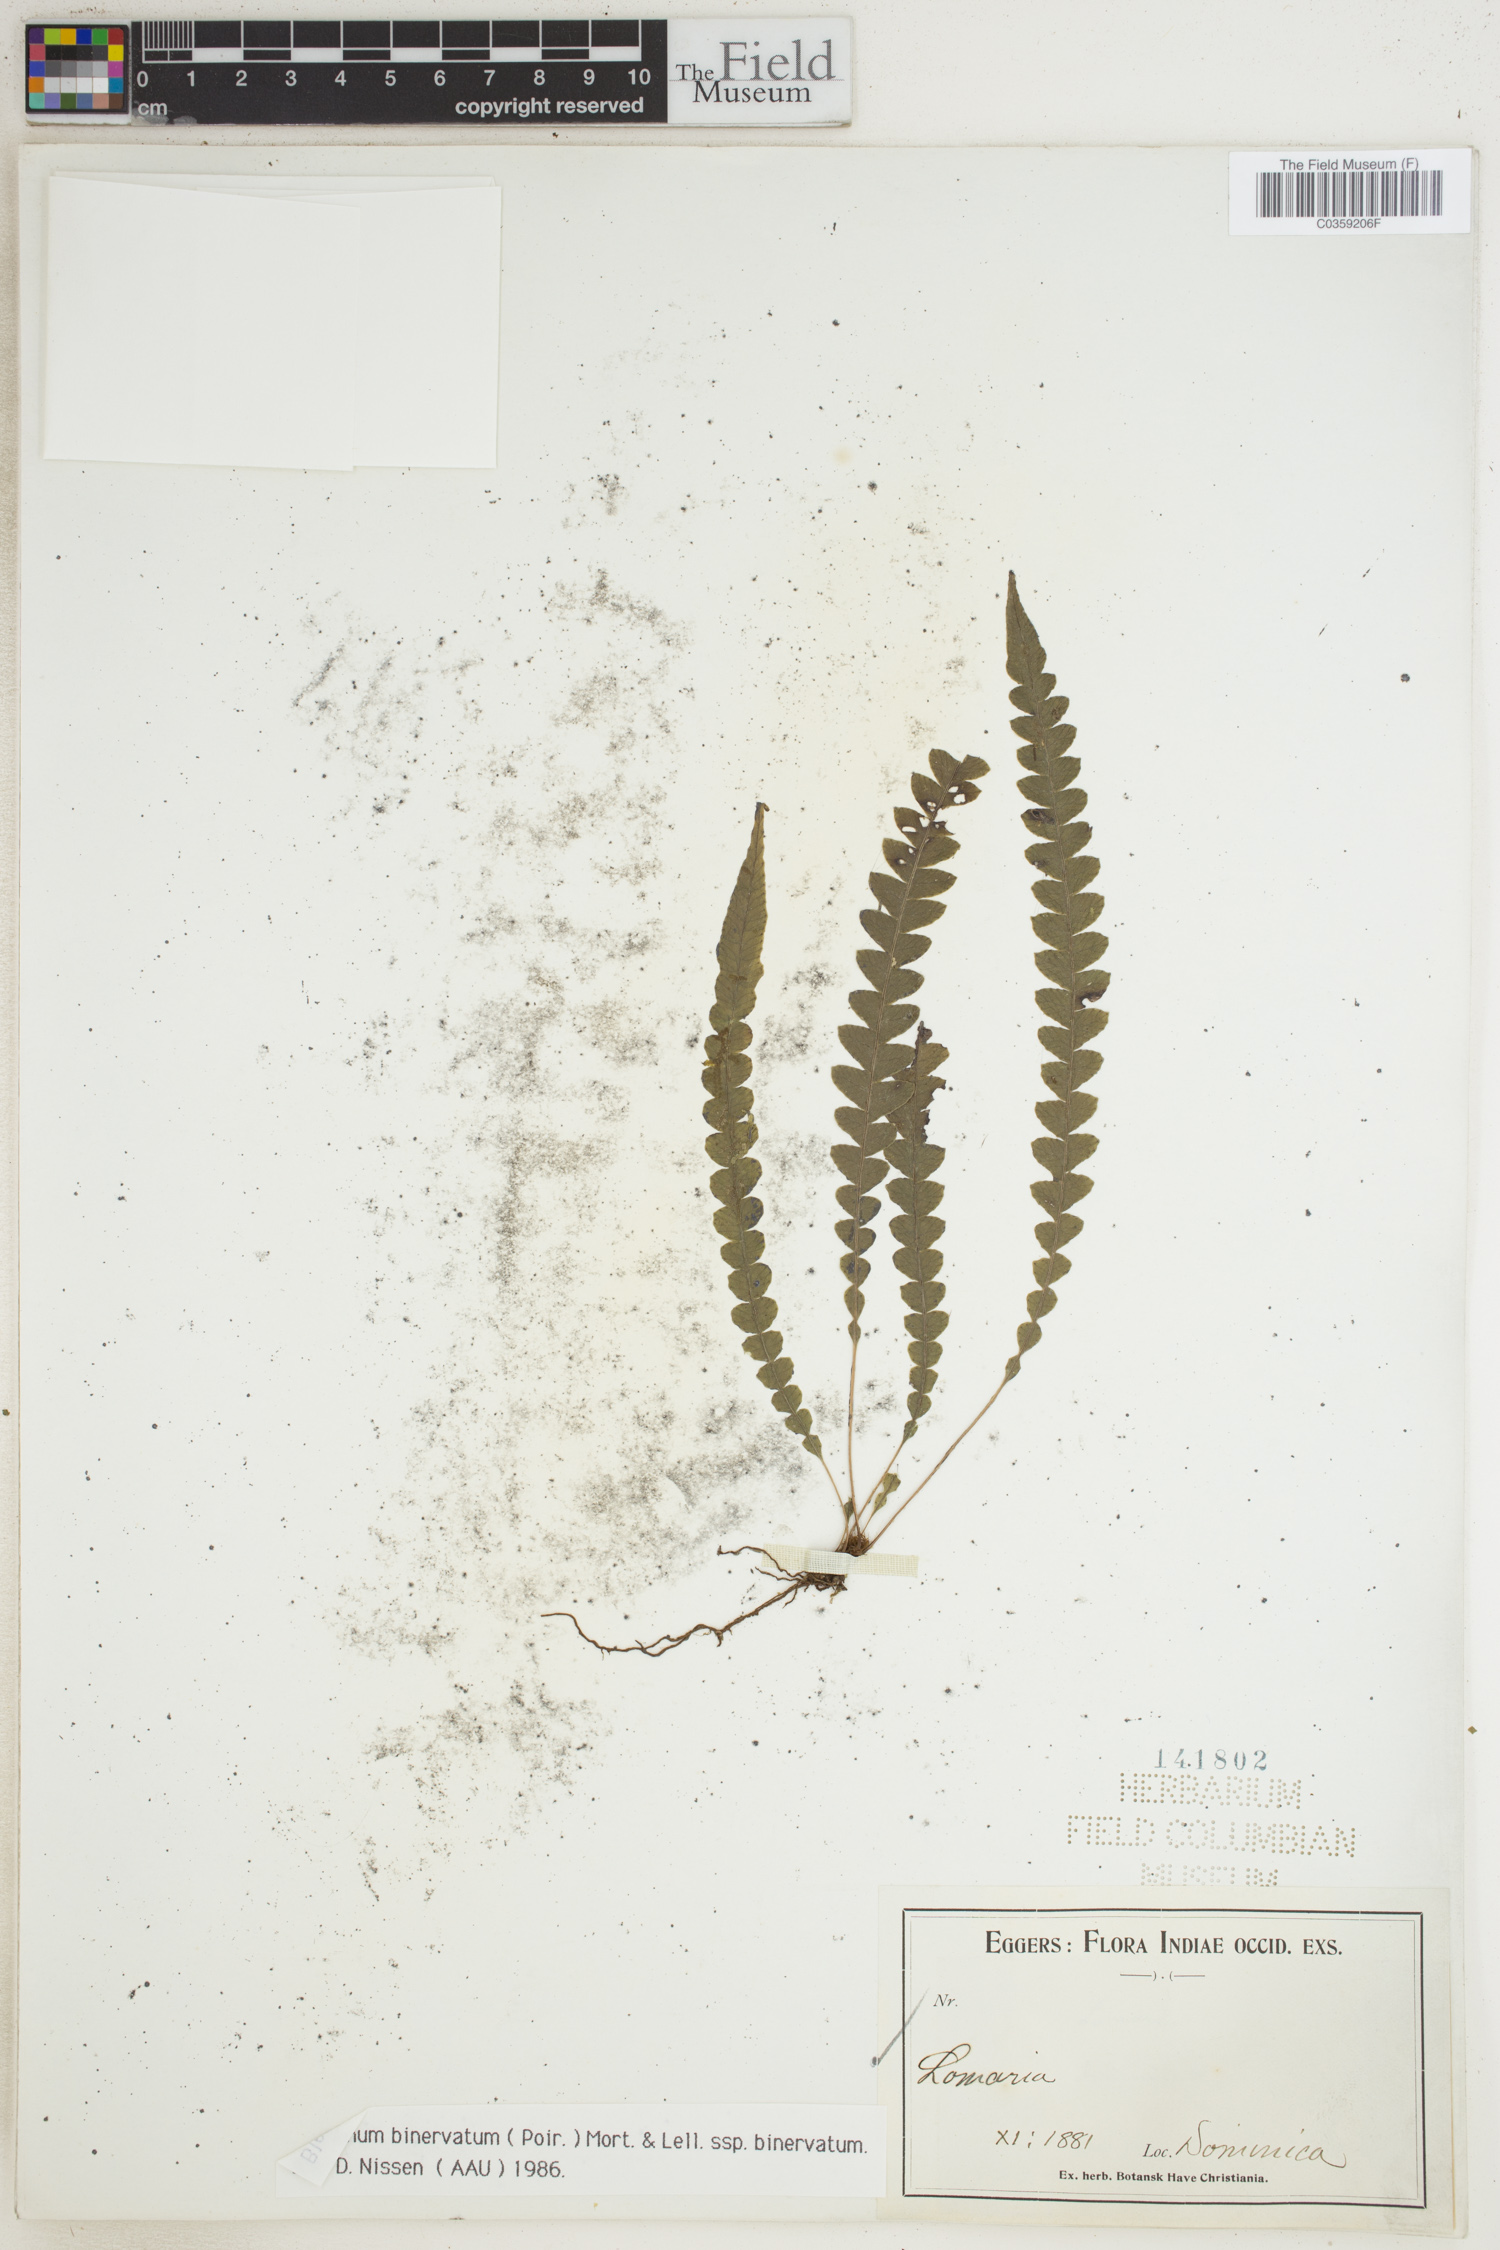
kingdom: Plantae
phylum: Tracheophyta
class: Polypodiopsida
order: Polypodiales
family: Blechnaceae
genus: Lomaridium
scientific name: Lomaridium binervatum
